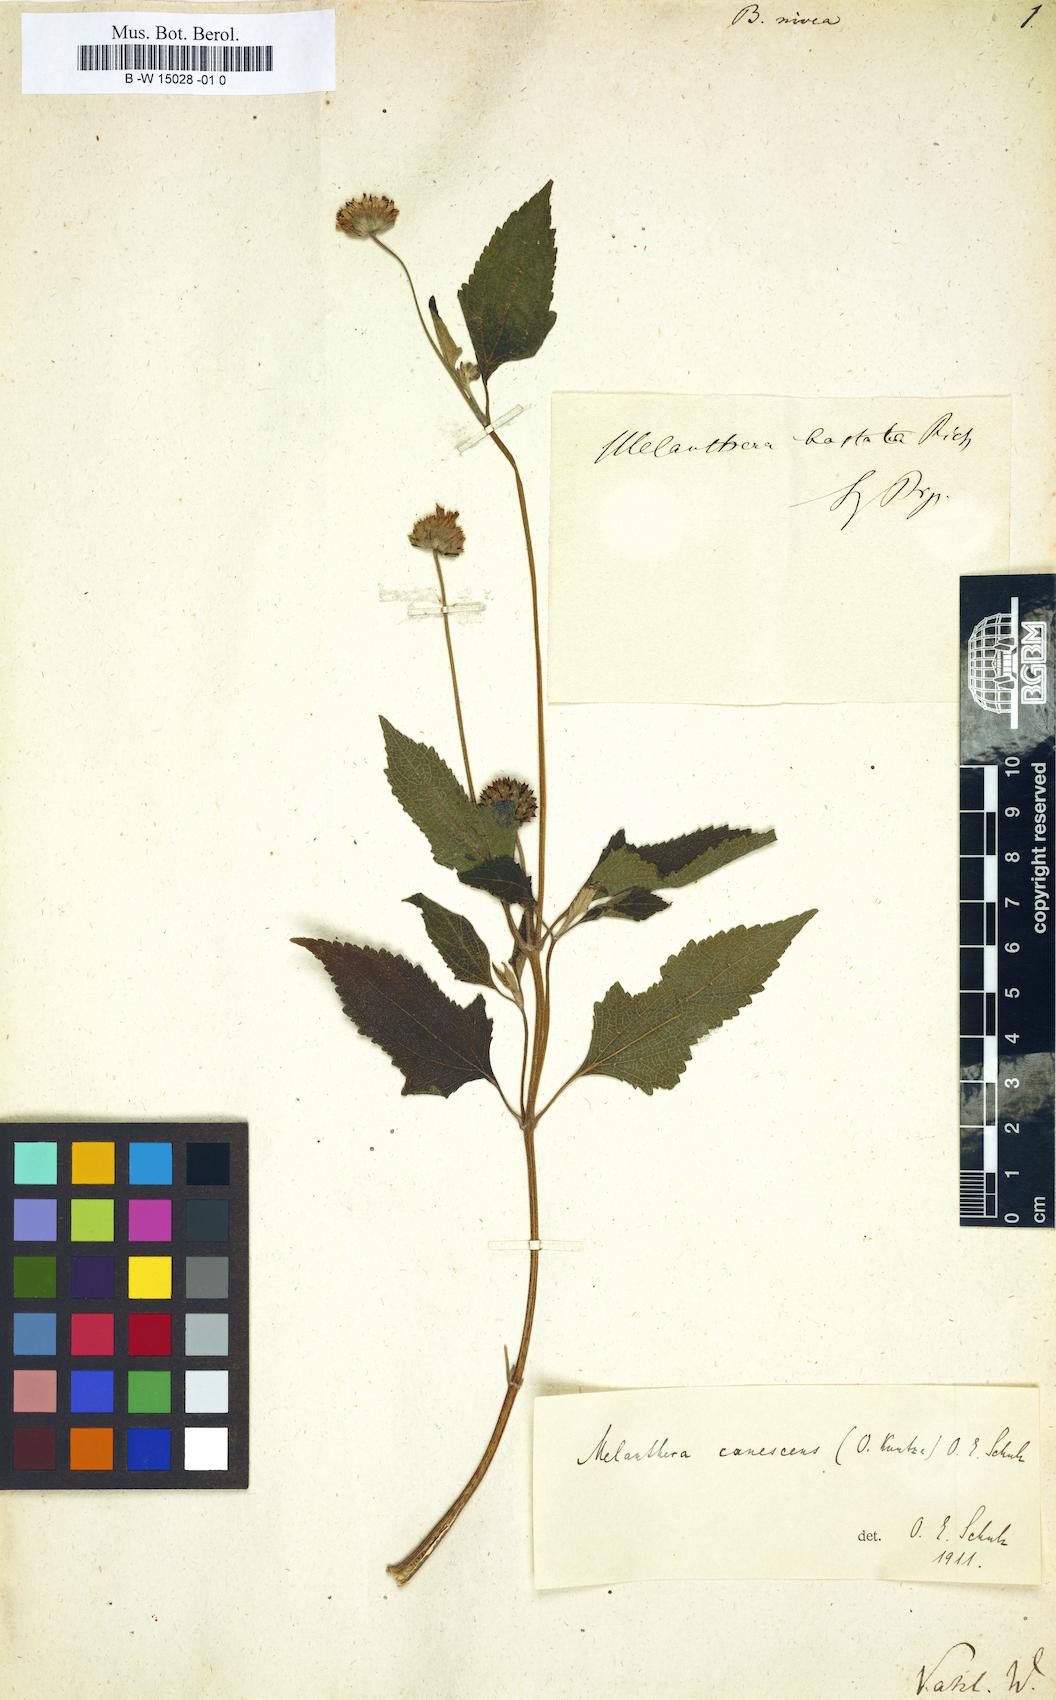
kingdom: Plantae
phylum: Tracheophyta
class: Magnoliopsida
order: Asterales
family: Asteraceae
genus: Bidens
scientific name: Bidens nivea
